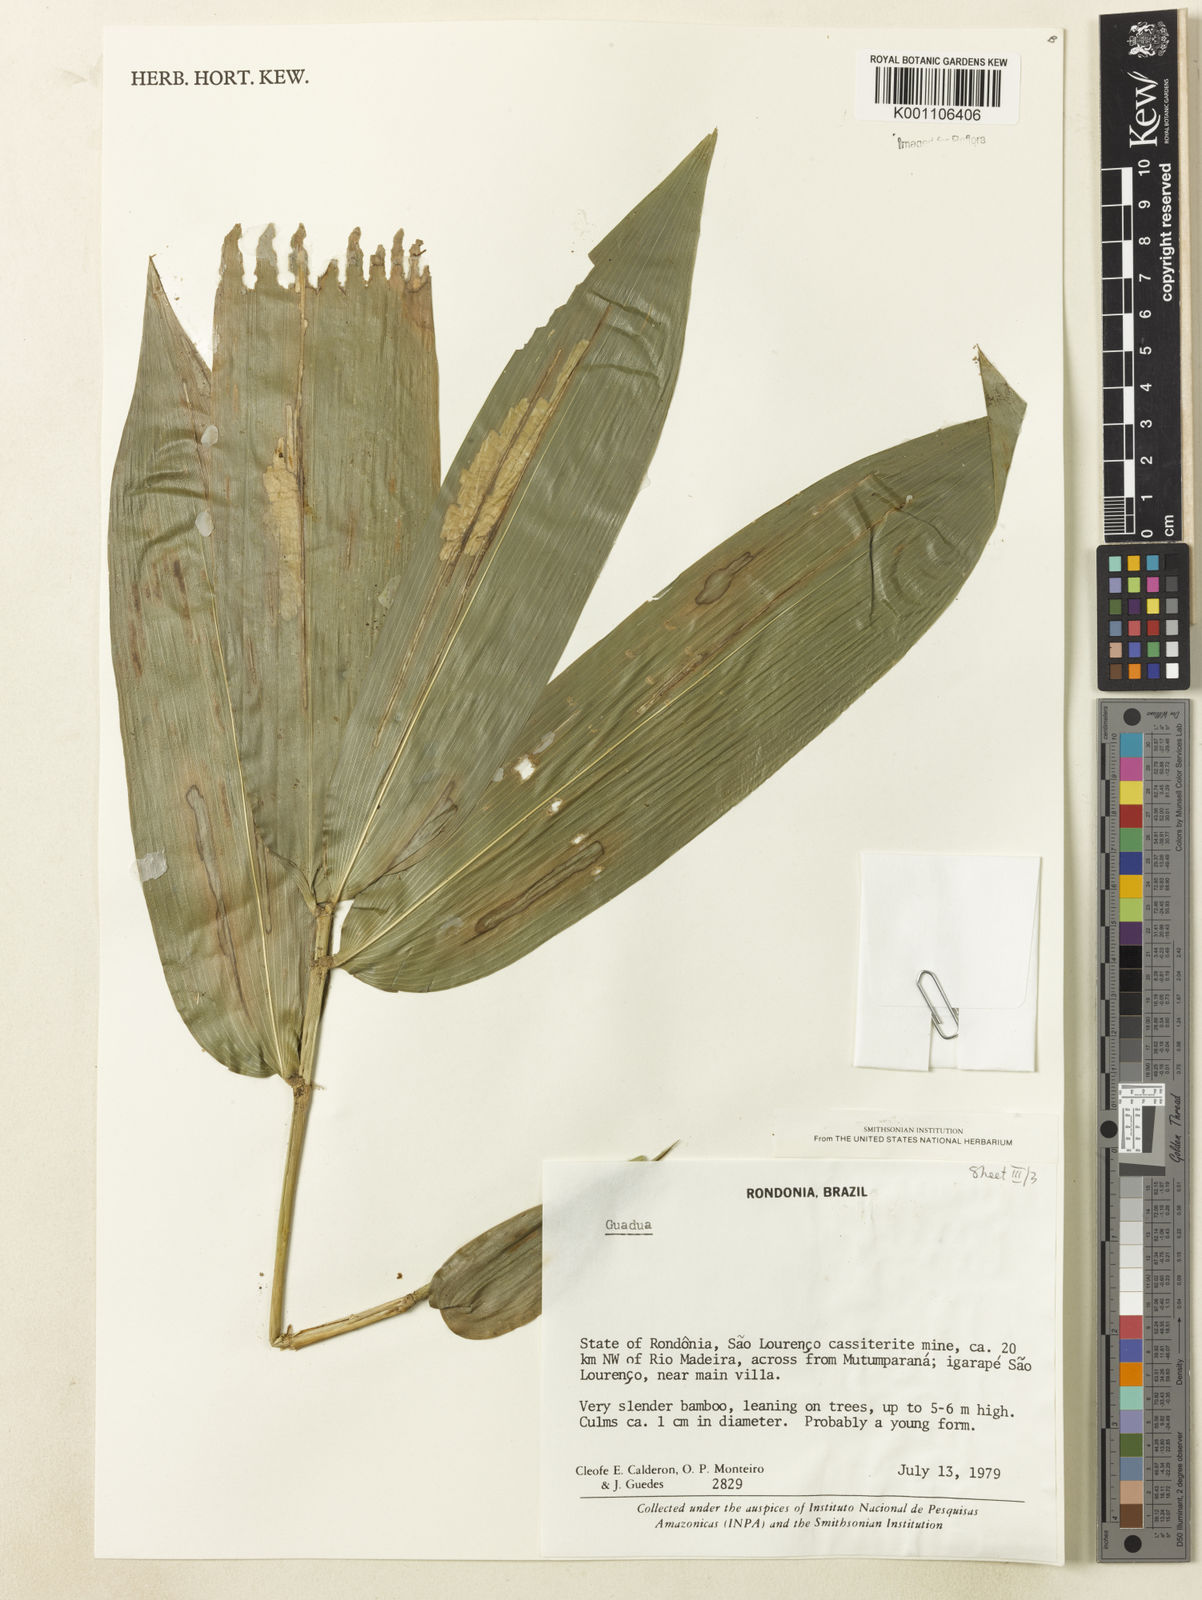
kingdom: Plantae
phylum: Tracheophyta
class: Liliopsida
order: Poales
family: Poaceae
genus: Guadua
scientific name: Guadua
